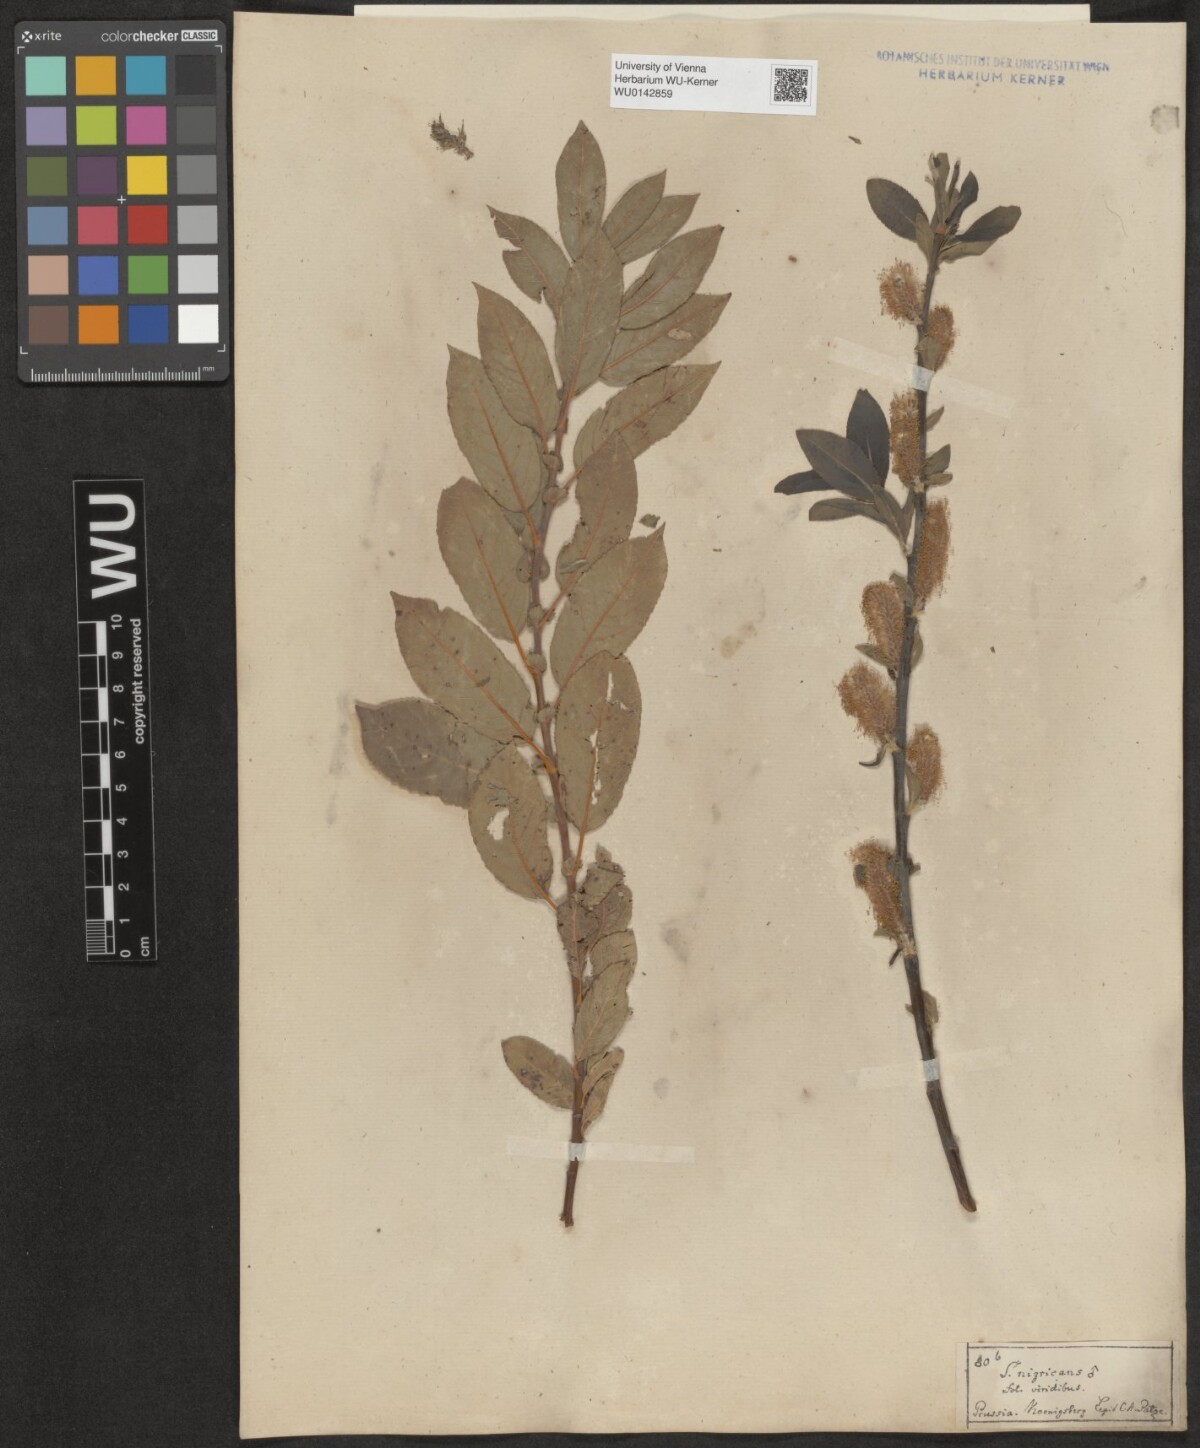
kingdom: Plantae
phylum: Tracheophyta
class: Magnoliopsida
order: Malpighiales
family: Salicaceae
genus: Salix
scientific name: Salix myrsinifolia
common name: Dark-leaved willow
